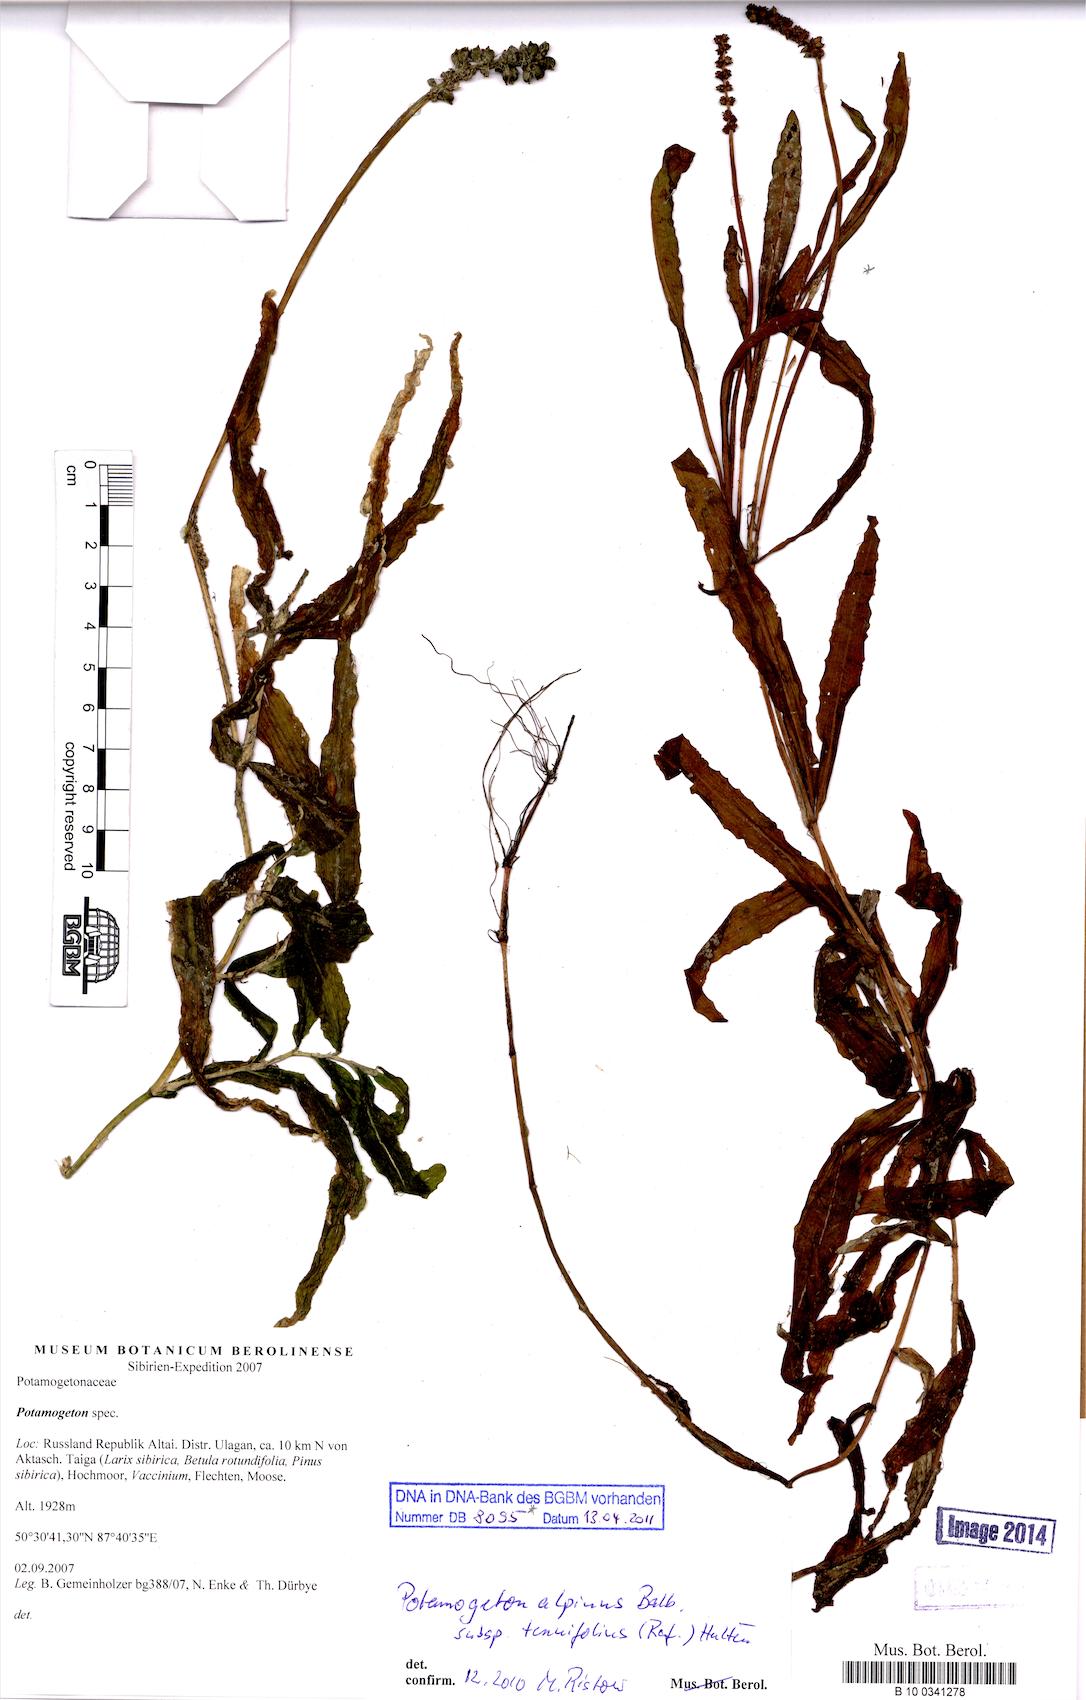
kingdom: Plantae
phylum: Tracheophyta
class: Liliopsida
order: Alismatales
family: Potamogetonaceae
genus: Potamogeton
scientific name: Potamogeton alpinus
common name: Red pondweed
